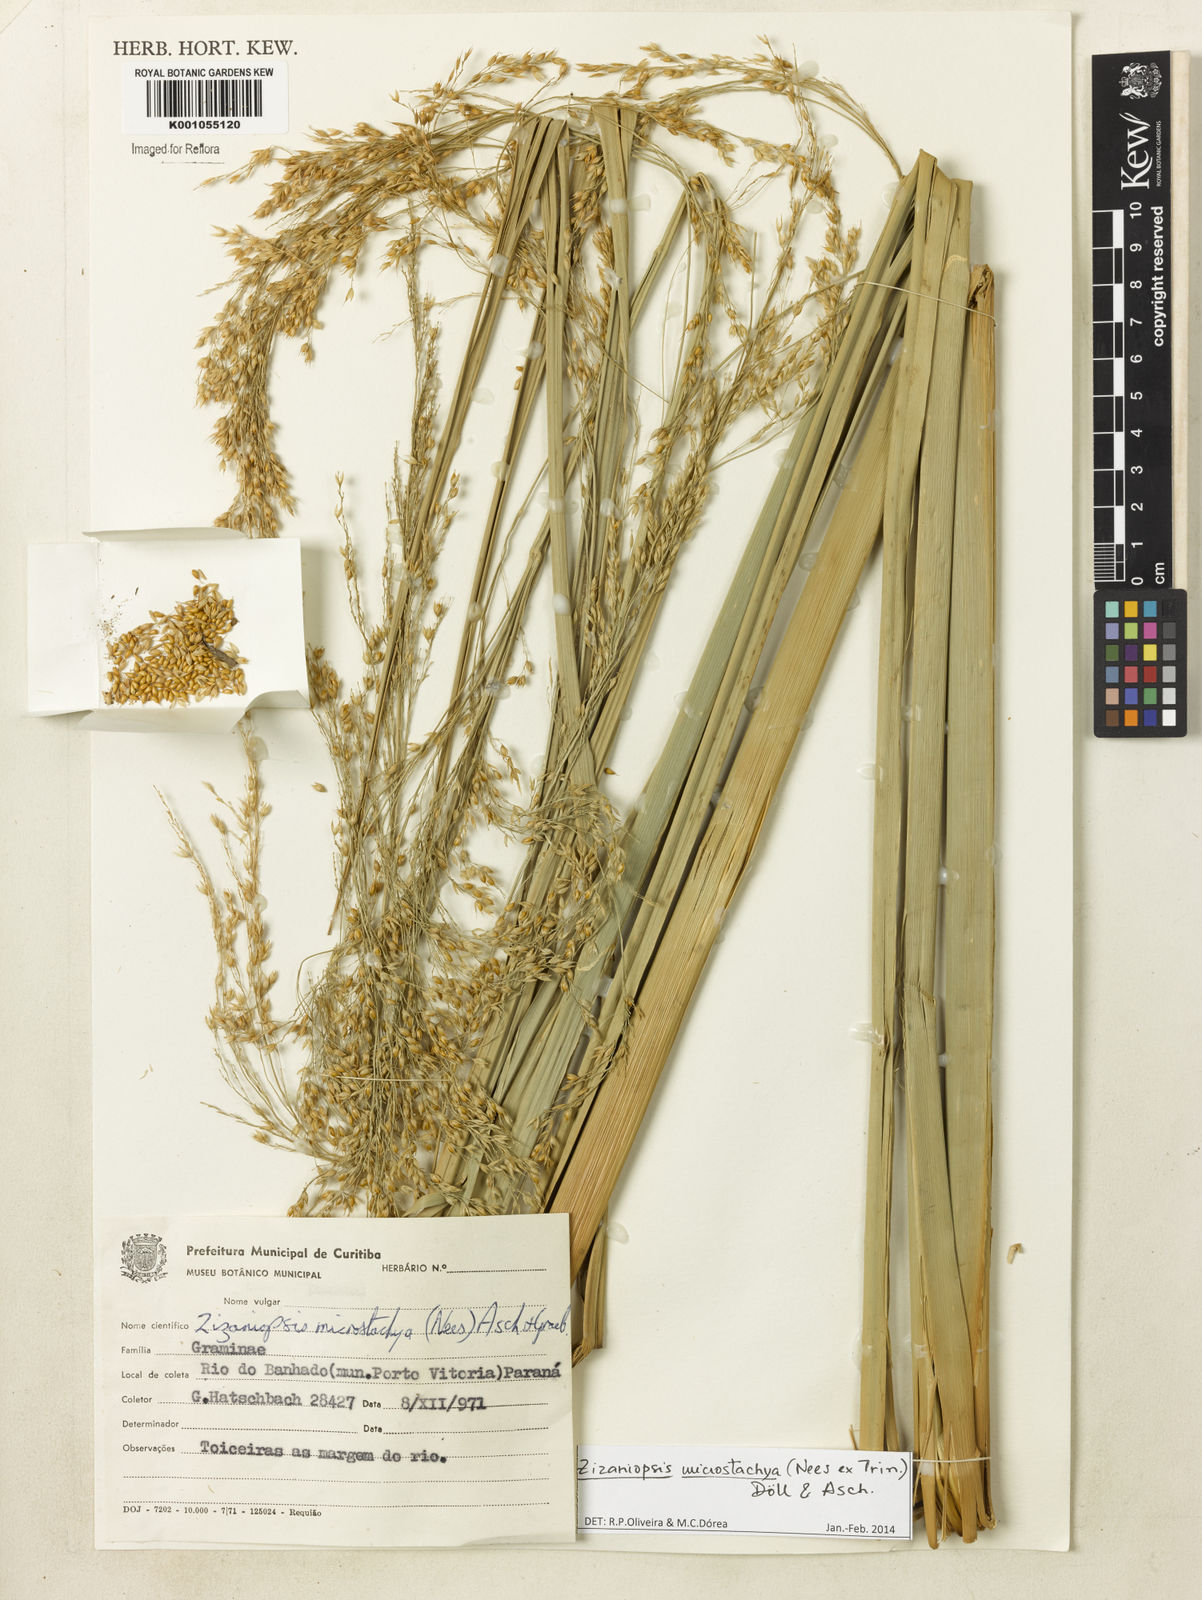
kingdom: Plantae
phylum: Tracheophyta
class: Liliopsida
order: Poales
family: Poaceae
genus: Zizaniopsis
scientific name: Zizaniopsis
